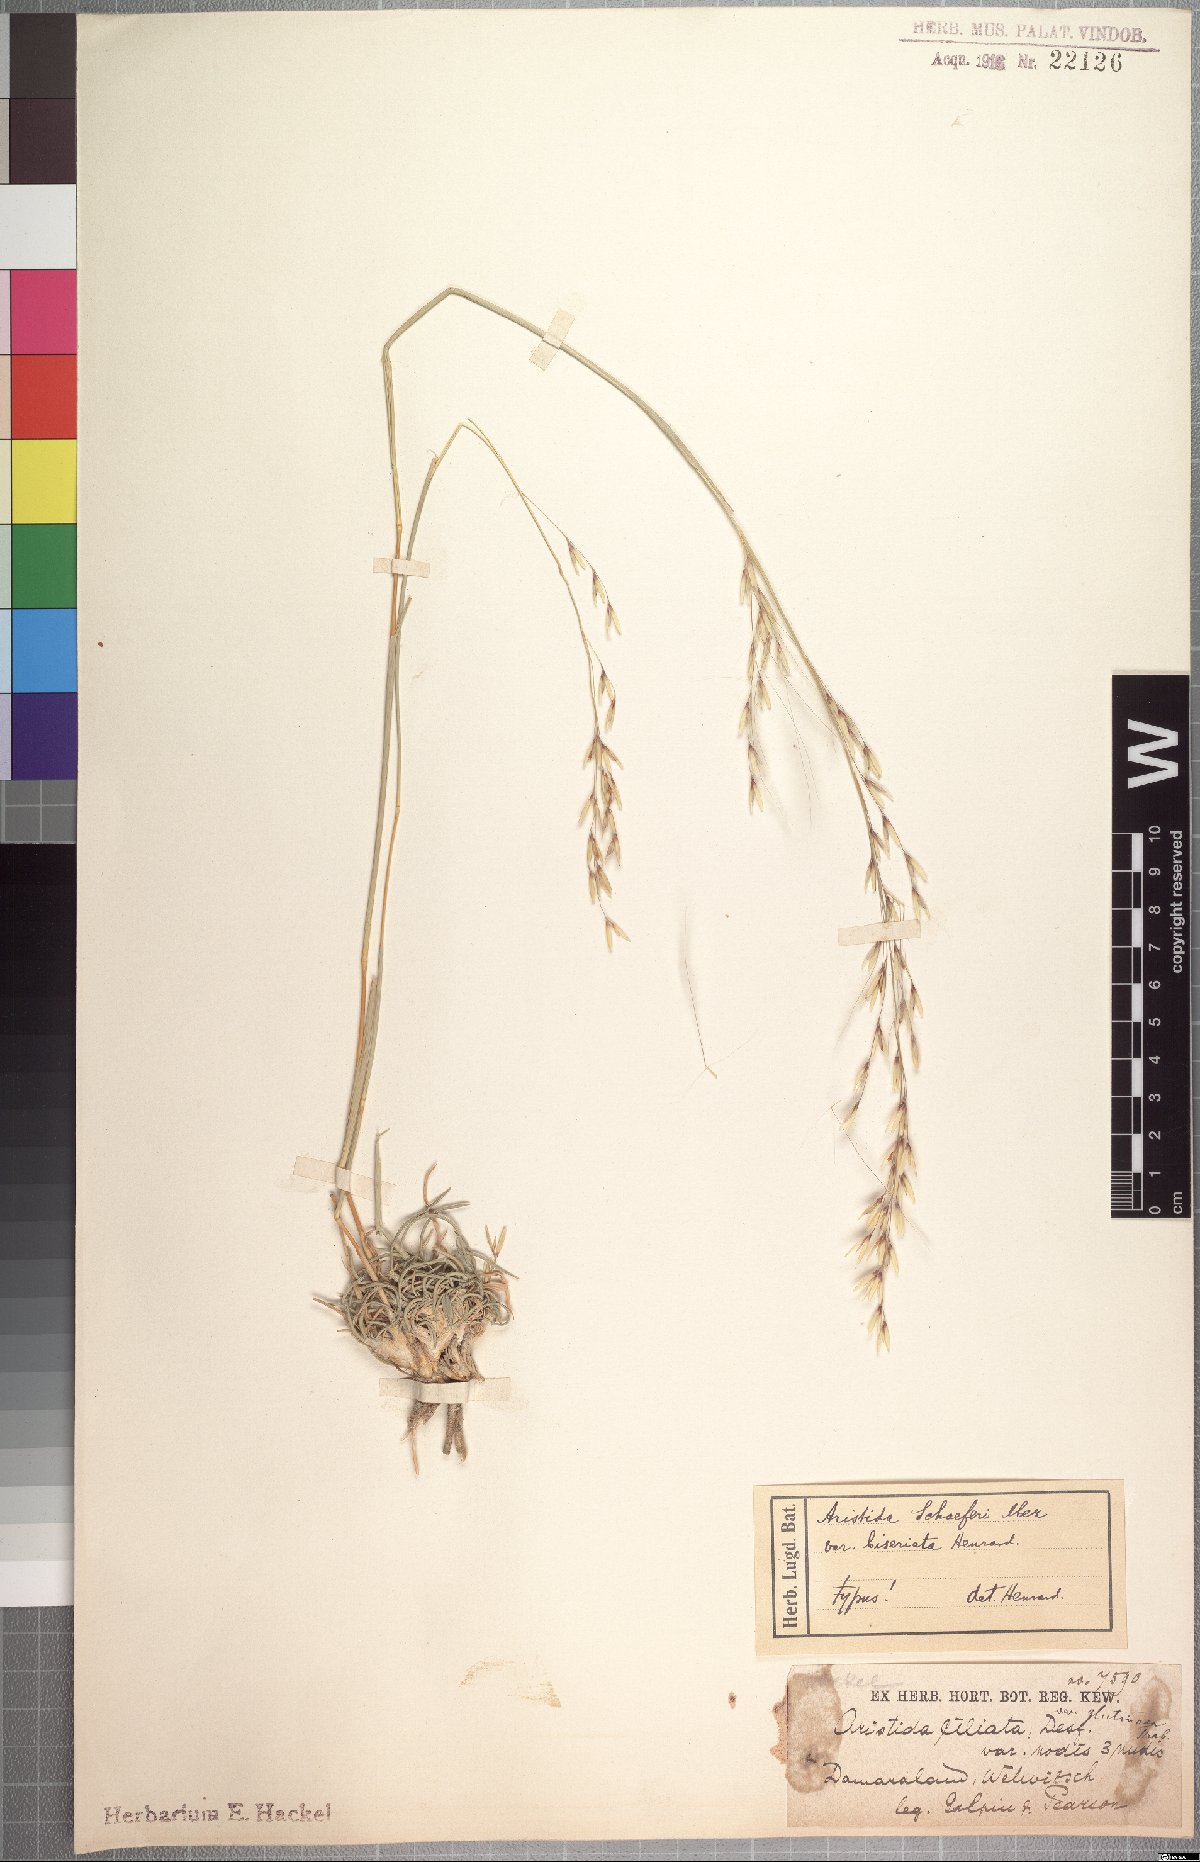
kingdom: Plantae
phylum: Tracheophyta
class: Liliopsida
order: Poales
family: Poaceae
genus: Stipagrostis
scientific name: Stipagrostis schaeferi
